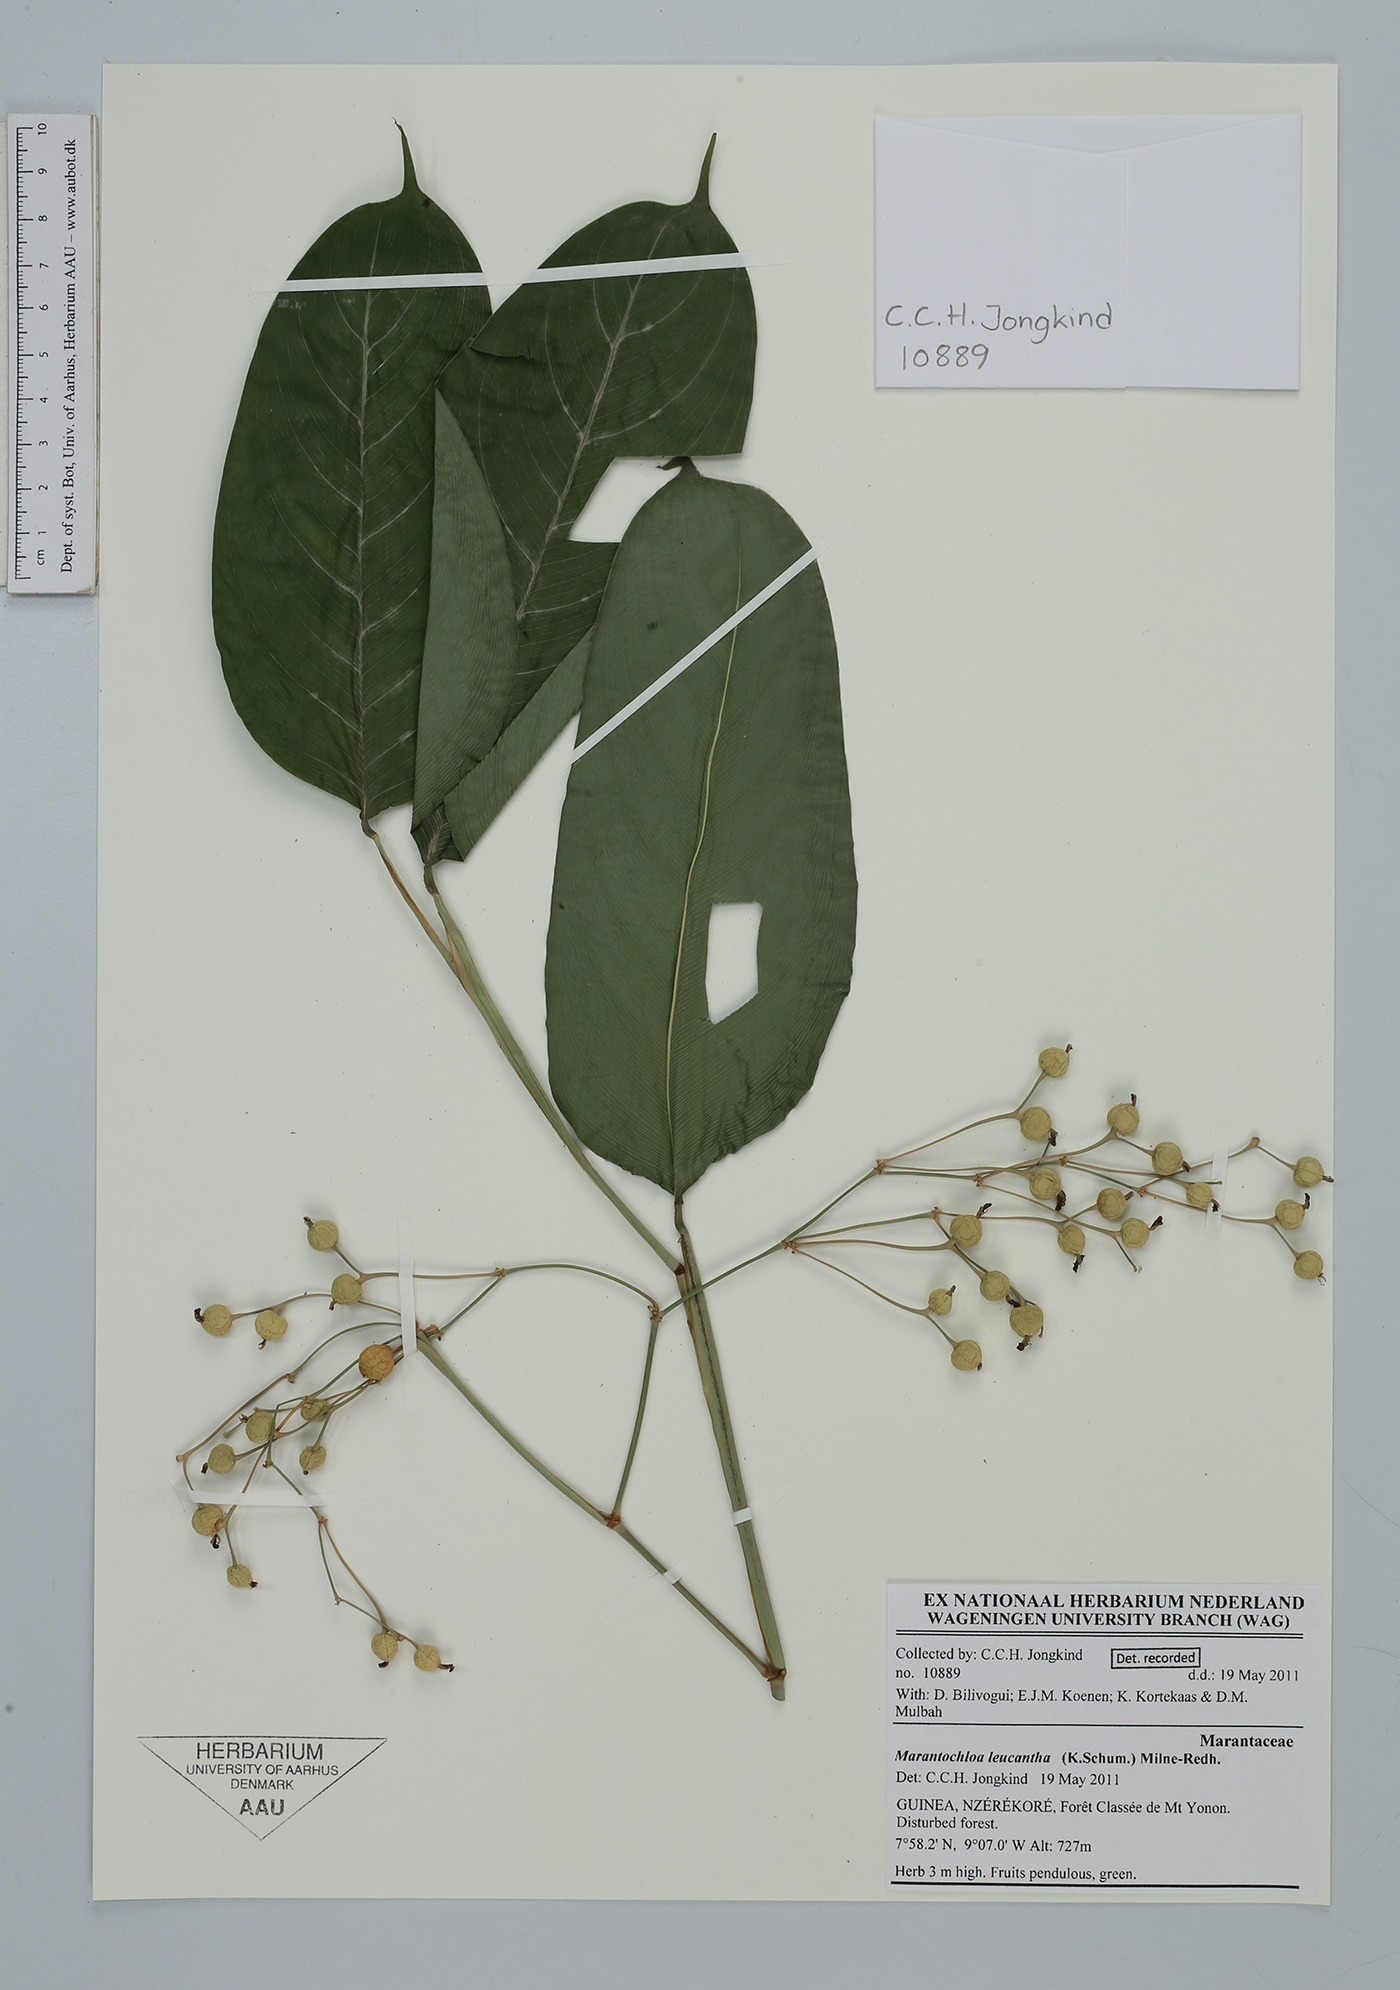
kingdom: Plantae
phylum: Tracheophyta
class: Liliopsida
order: Zingiberales
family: Marantaceae
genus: Marantochloa
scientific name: Marantochloa leucantha
